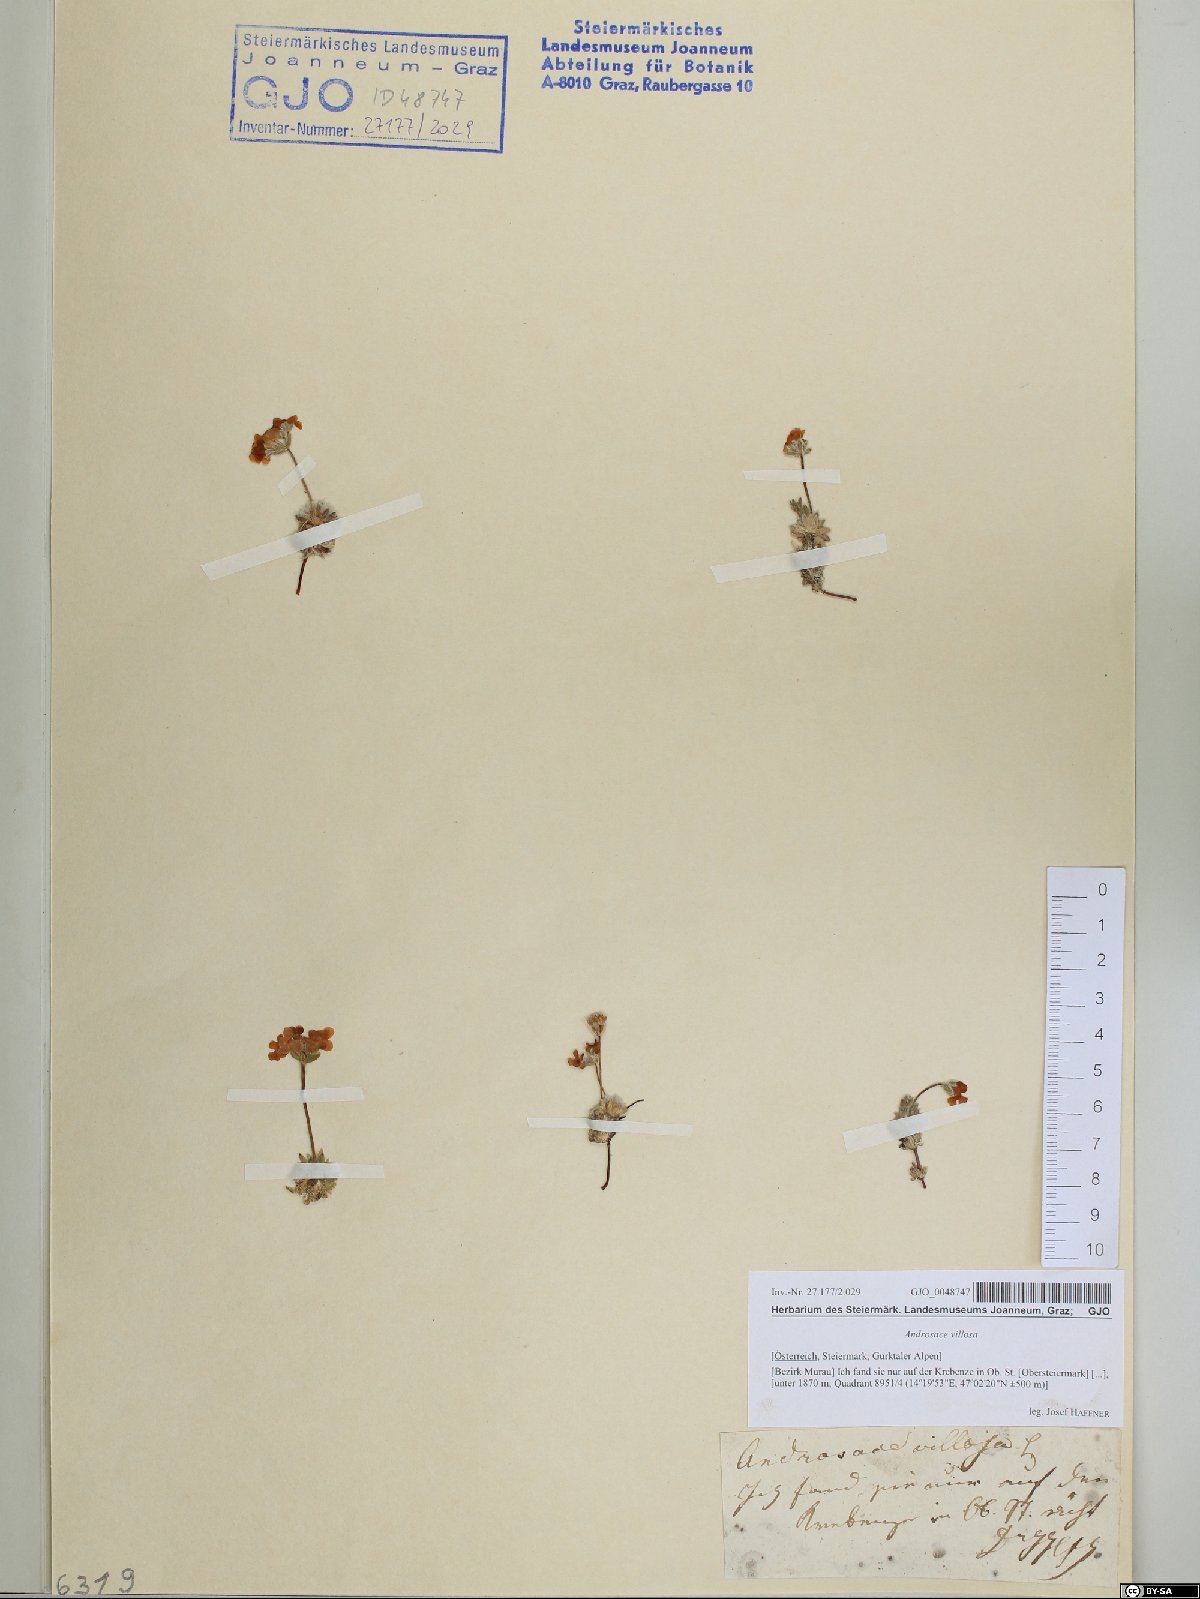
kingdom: Plantae
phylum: Tracheophyta
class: Magnoliopsida
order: Ericales
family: Primulaceae
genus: Androsace
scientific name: Androsace villosa
